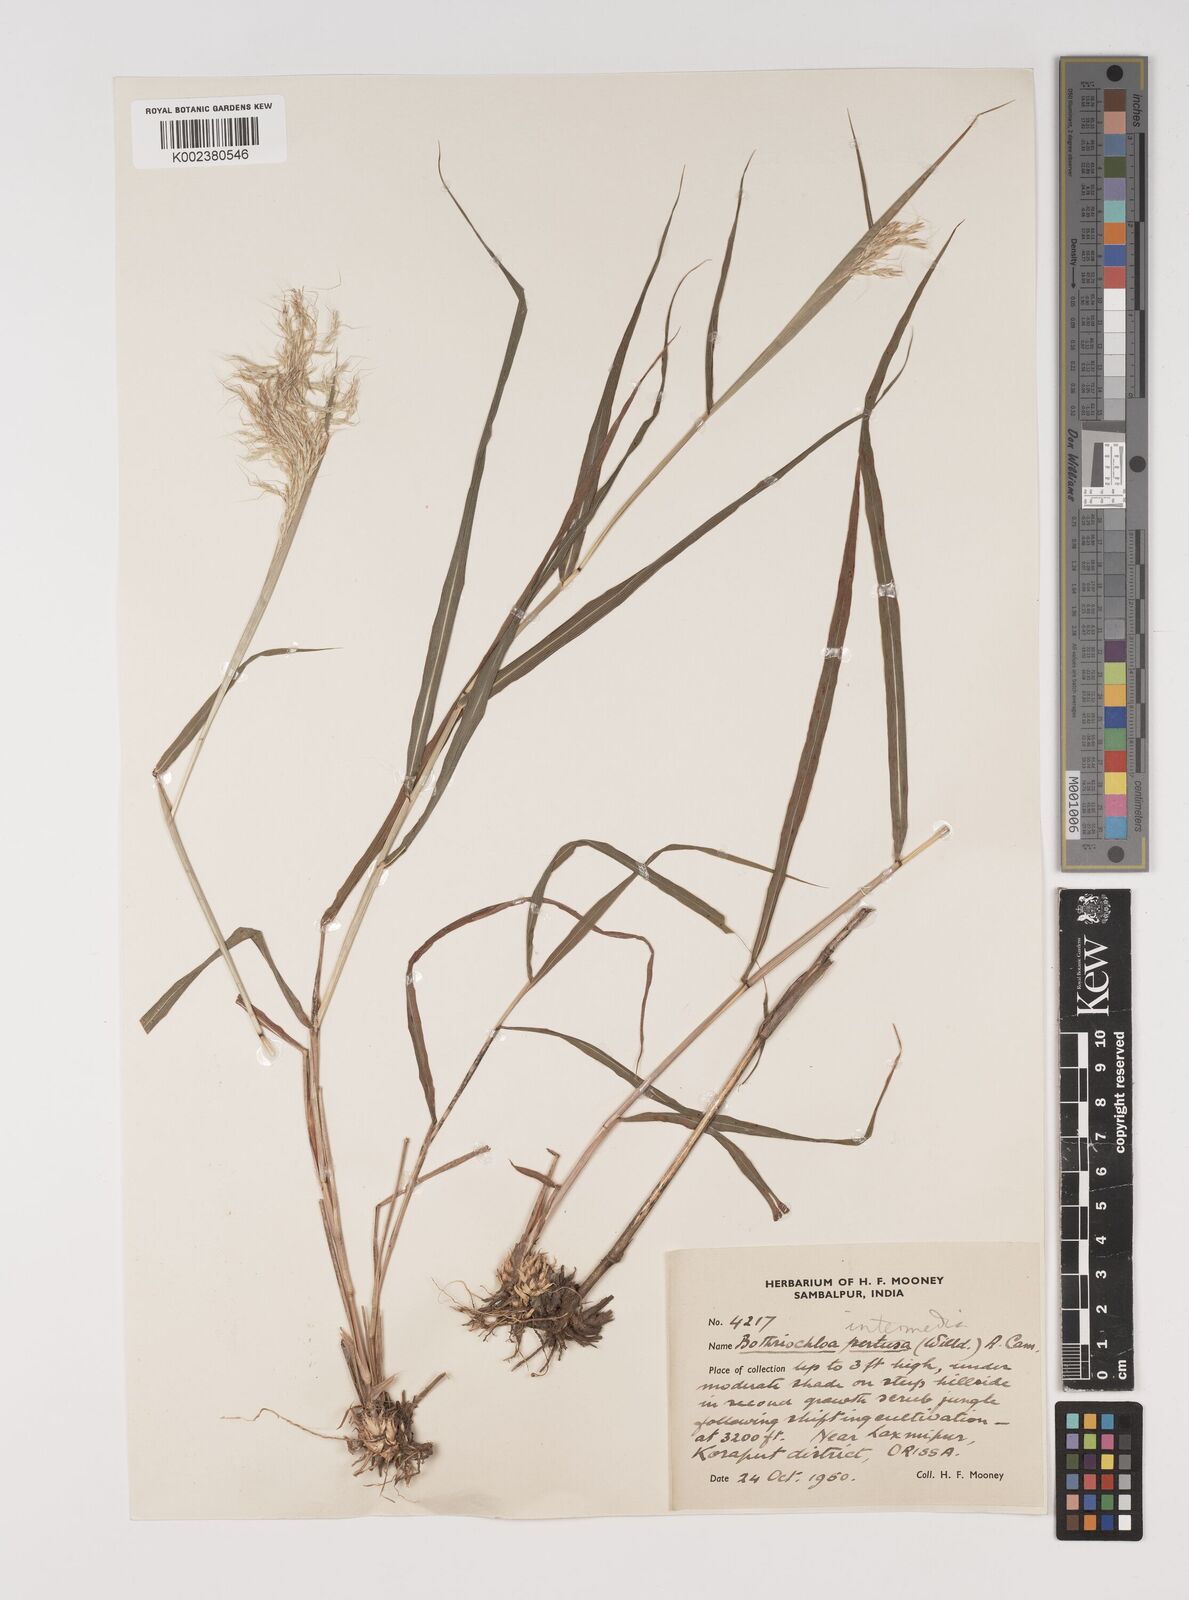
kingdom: Plantae
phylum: Tracheophyta
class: Liliopsida
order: Poales
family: Poaceae
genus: Bothriochloa
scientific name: Bothriochloa bladhii
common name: Caucasian bluestem
